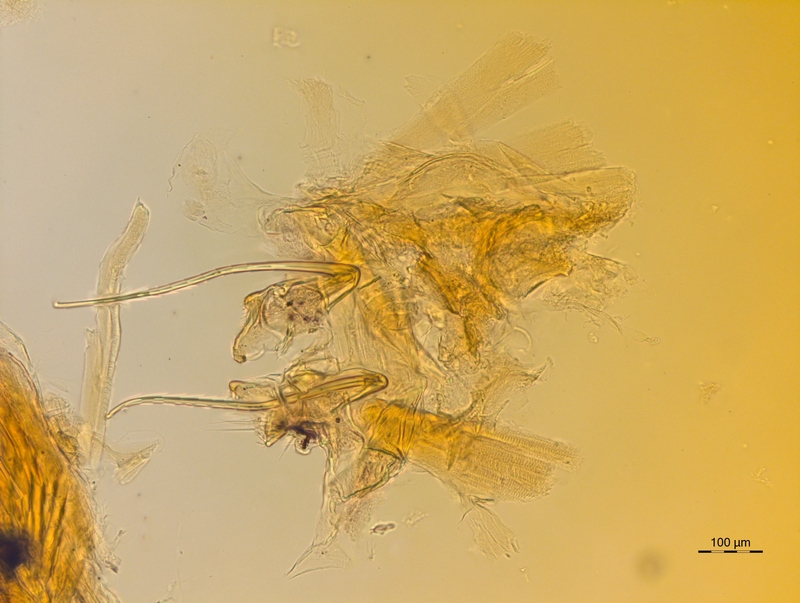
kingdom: Animalia
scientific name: Animalia
